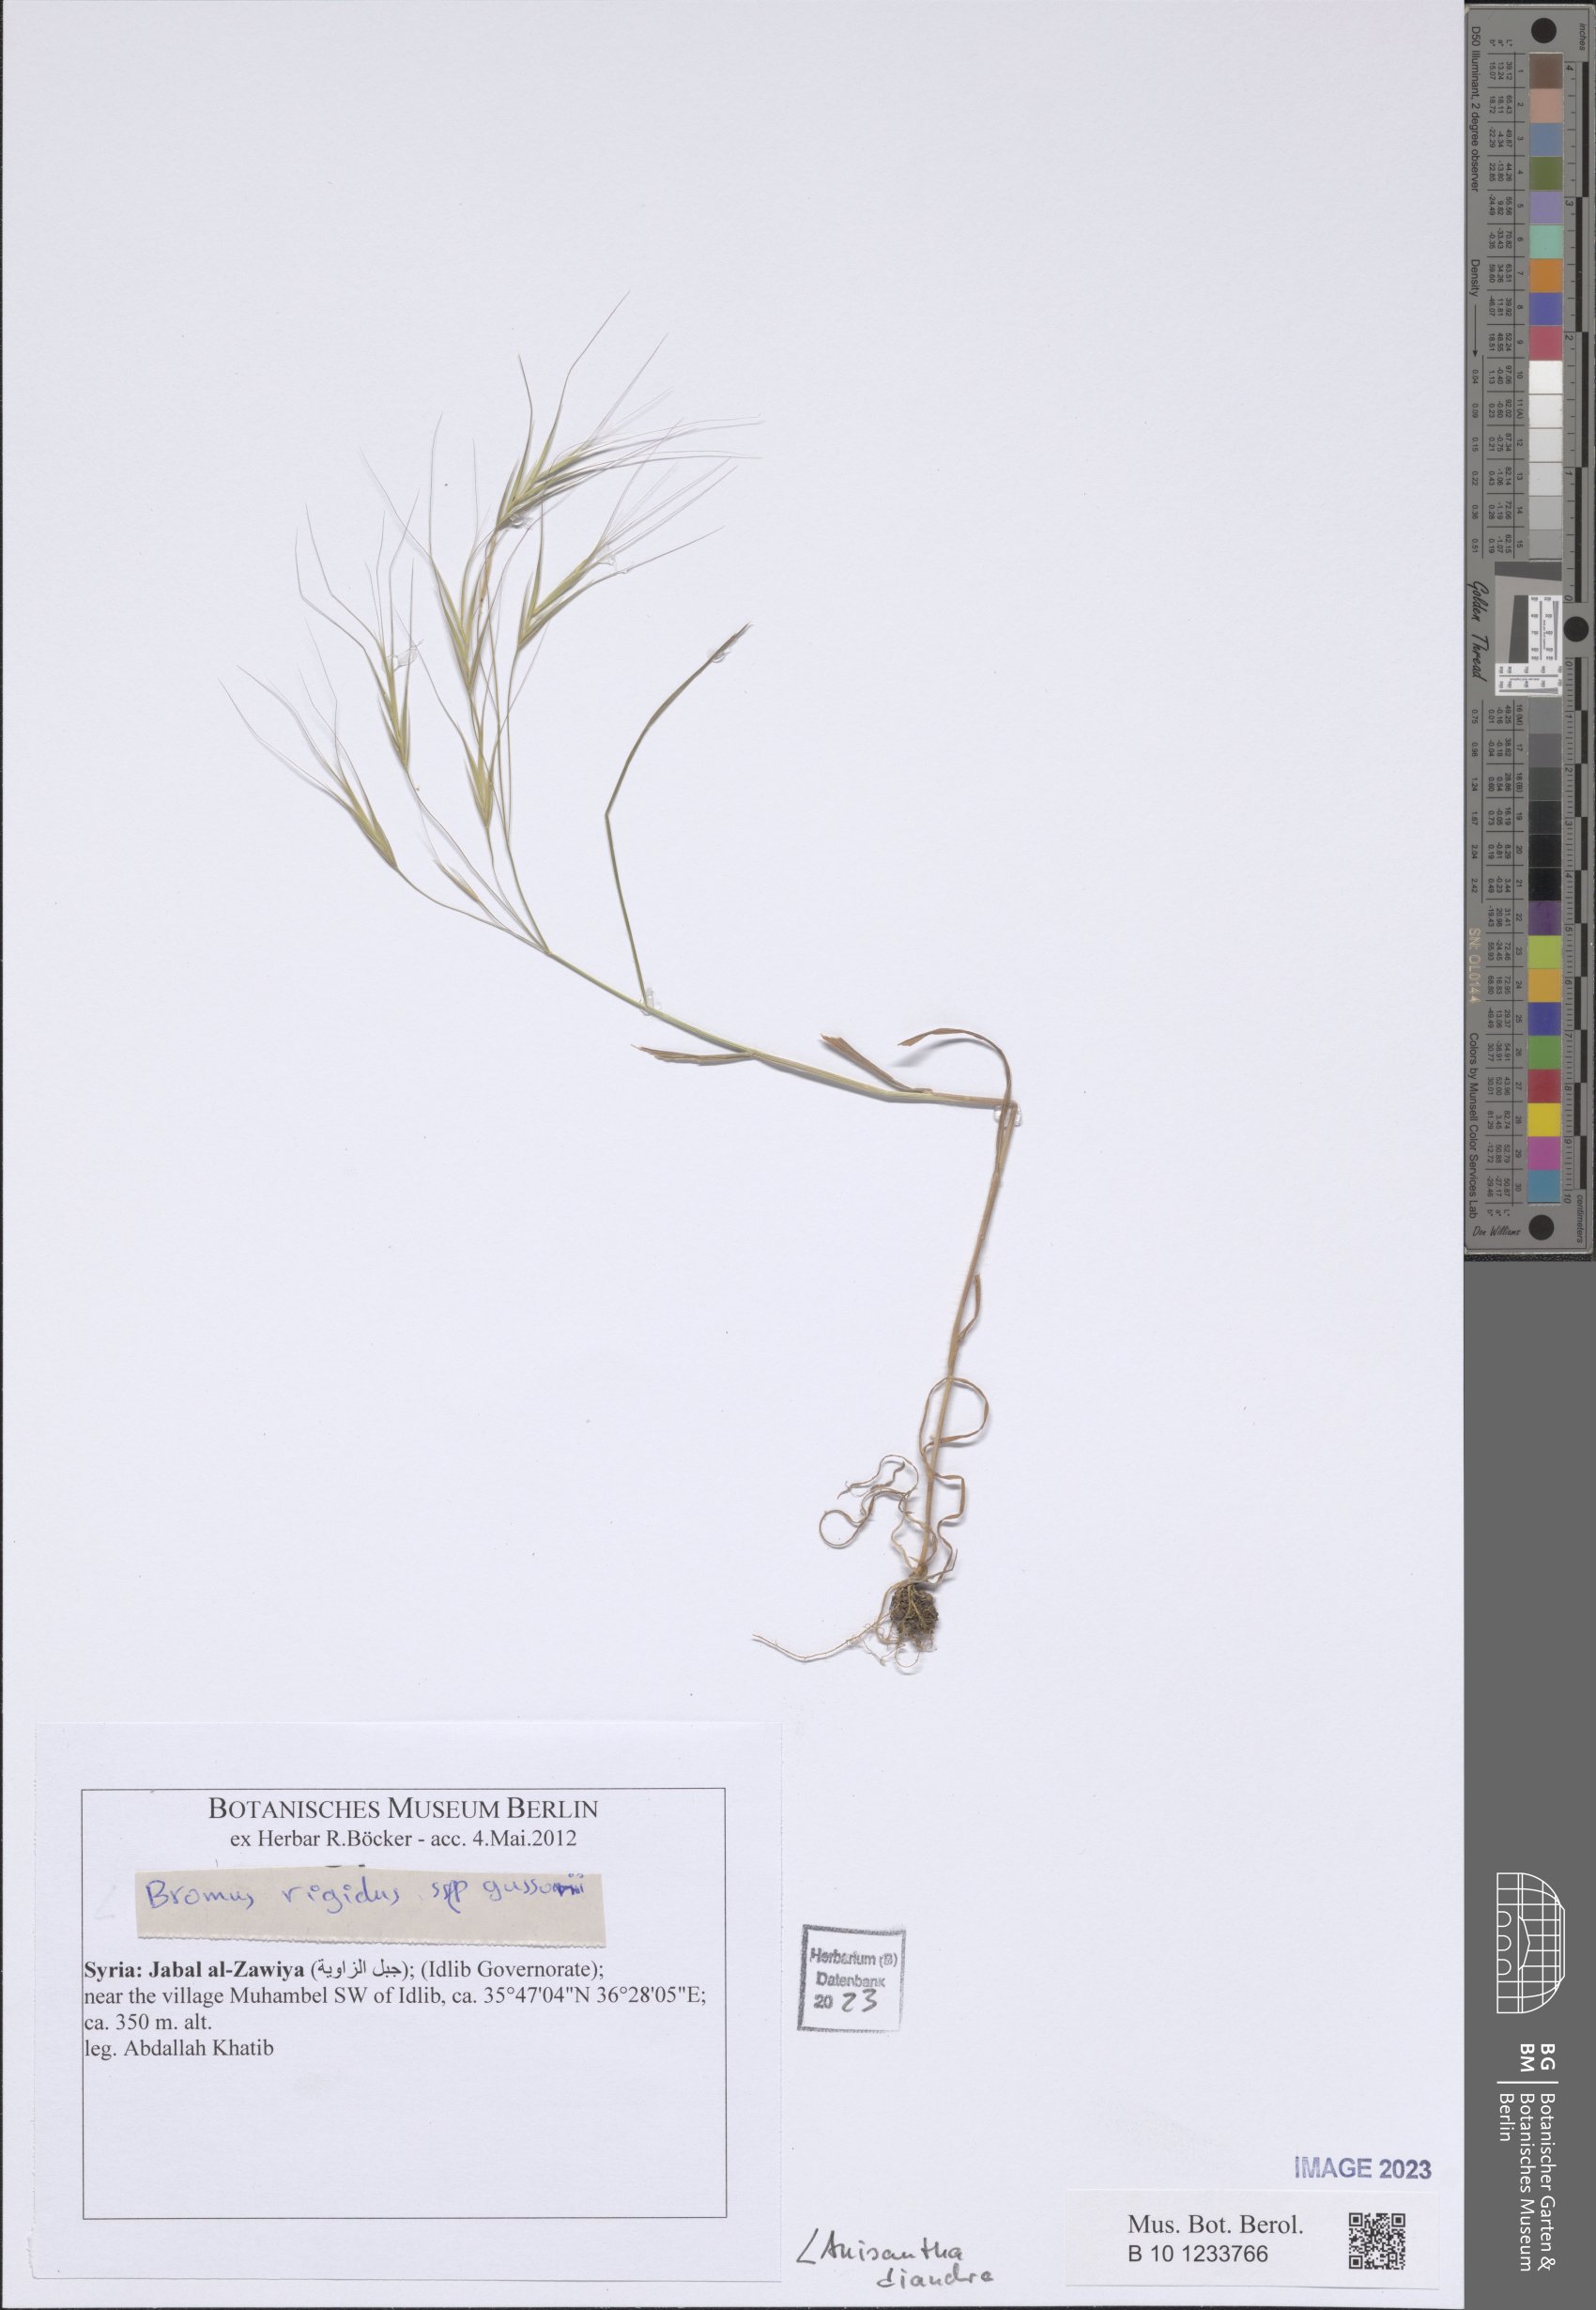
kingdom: Plantae
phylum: Tracheophyta
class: Liliopsida
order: Poales
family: Poaceae
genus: Bromus
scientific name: Bromus diandrus
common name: Ripgut brome
